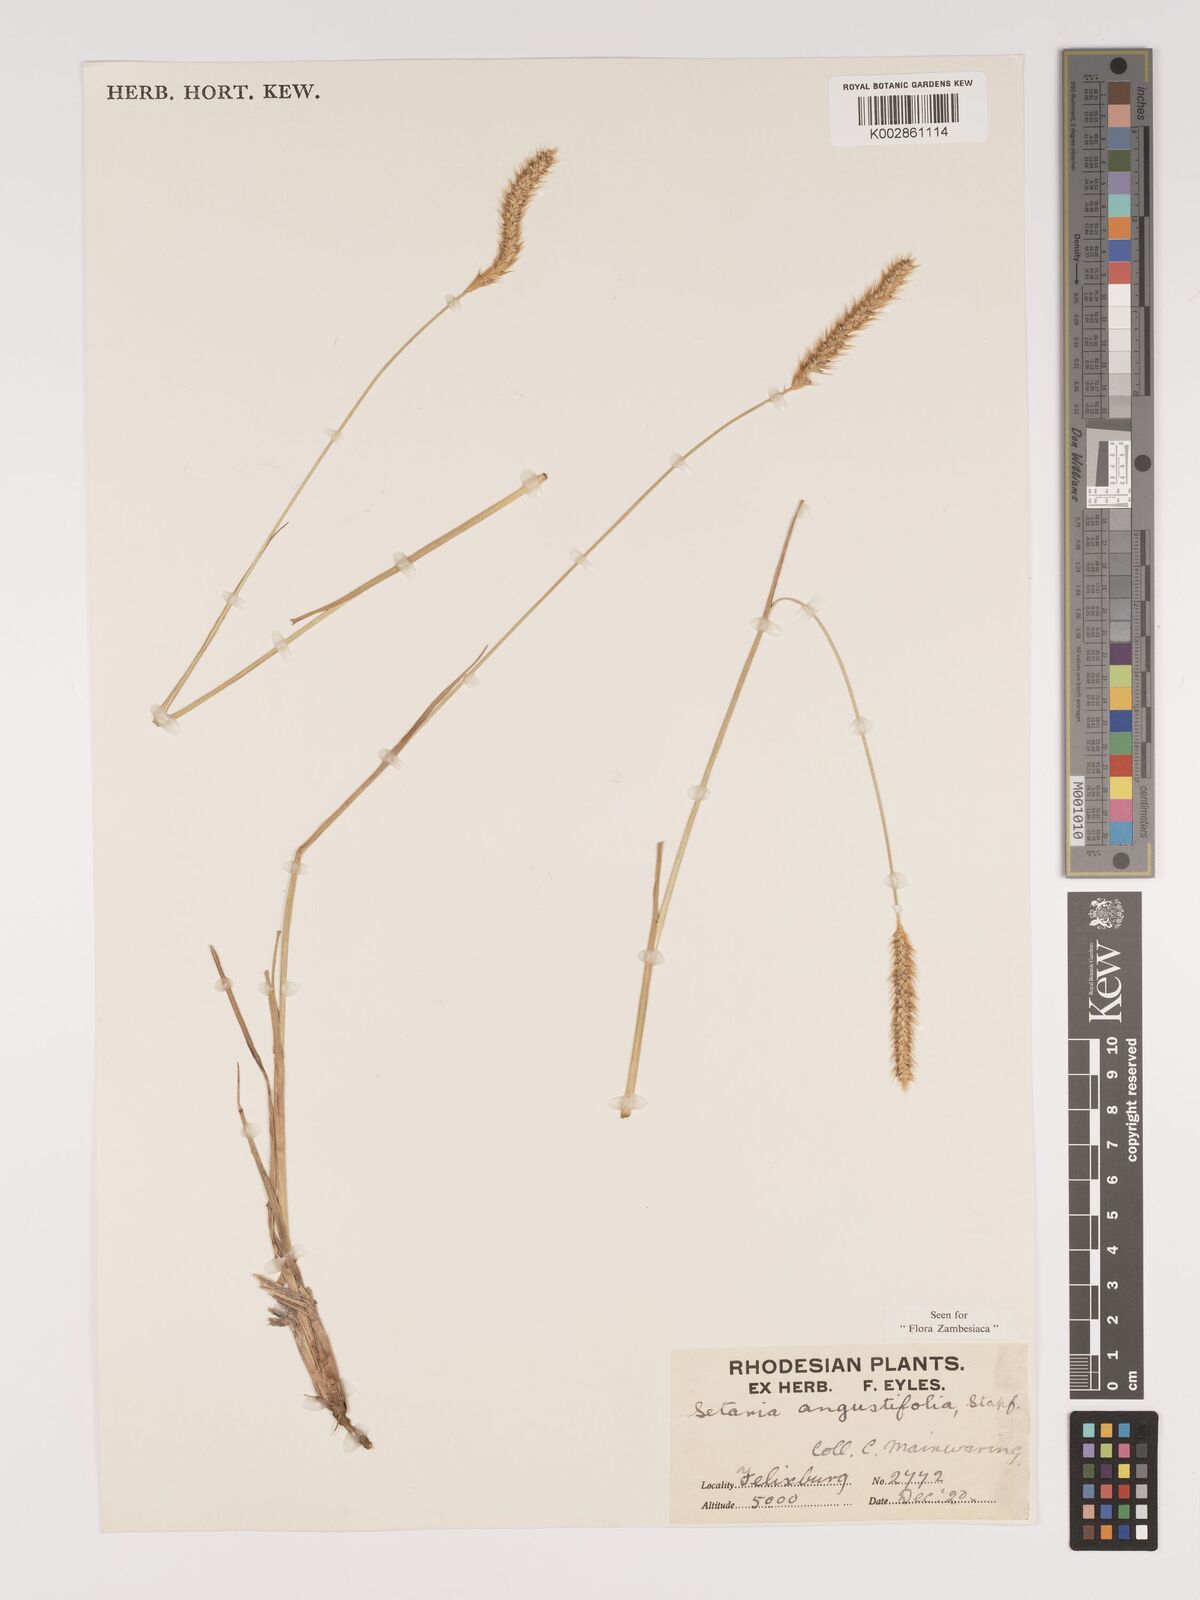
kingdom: Plantae
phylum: Tracheophyta
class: Liliopsida
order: Poales
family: Poaceae
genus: Setaria
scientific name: Setaria sphacelata
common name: African bristlegrass
